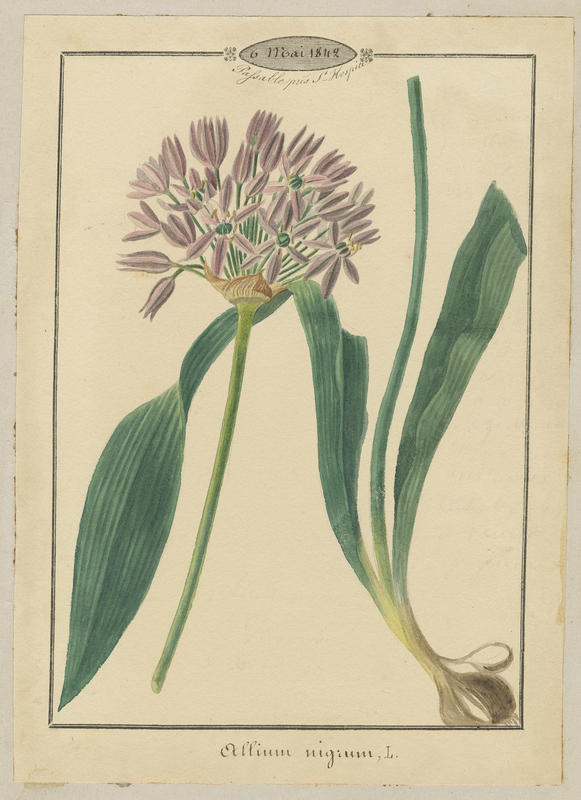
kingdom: Plantae
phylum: Tracheophyta
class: Liliopsida
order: Asparagales
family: Amaryllidaceae
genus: Allium
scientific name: Allium nigrum
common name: Black garlic
